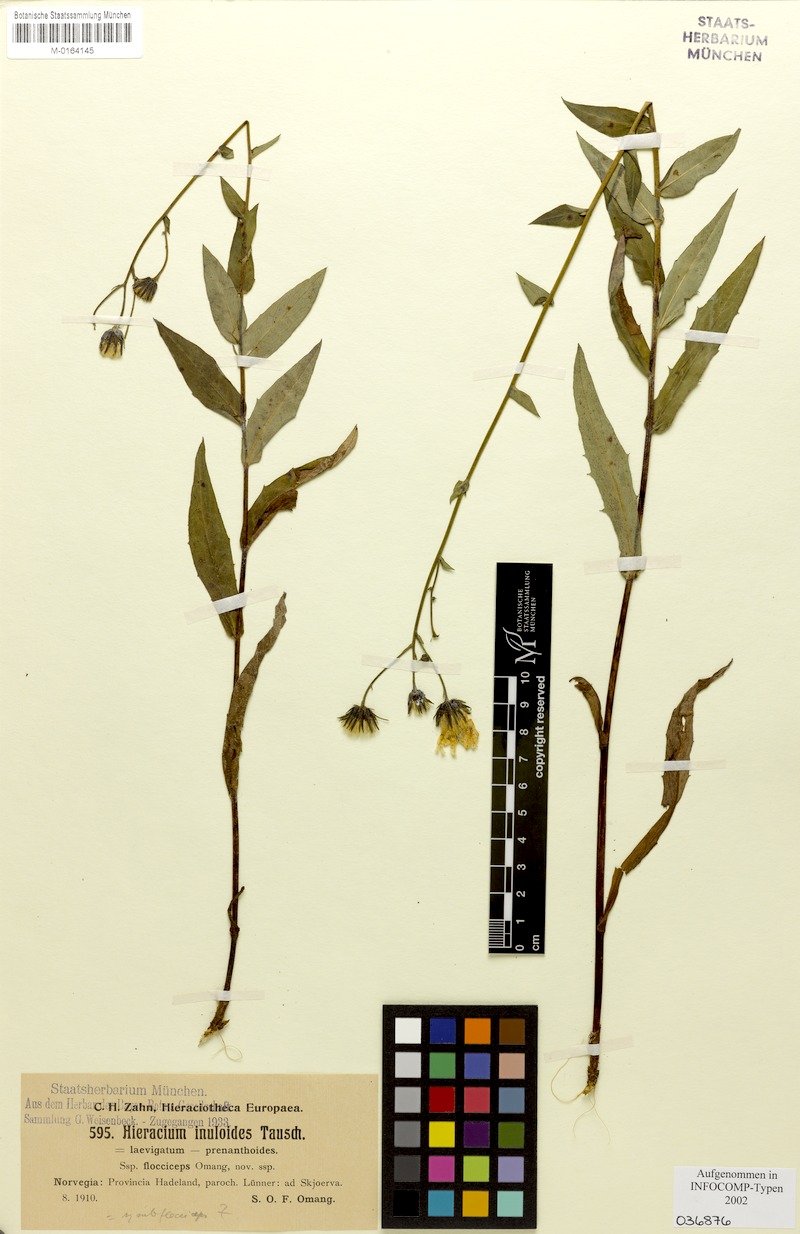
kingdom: Plantae
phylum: Tracheophyta
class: Magnoliopsida
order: Asterales
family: Asteraceae
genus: Hieracium
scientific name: Hieracium inuloides
